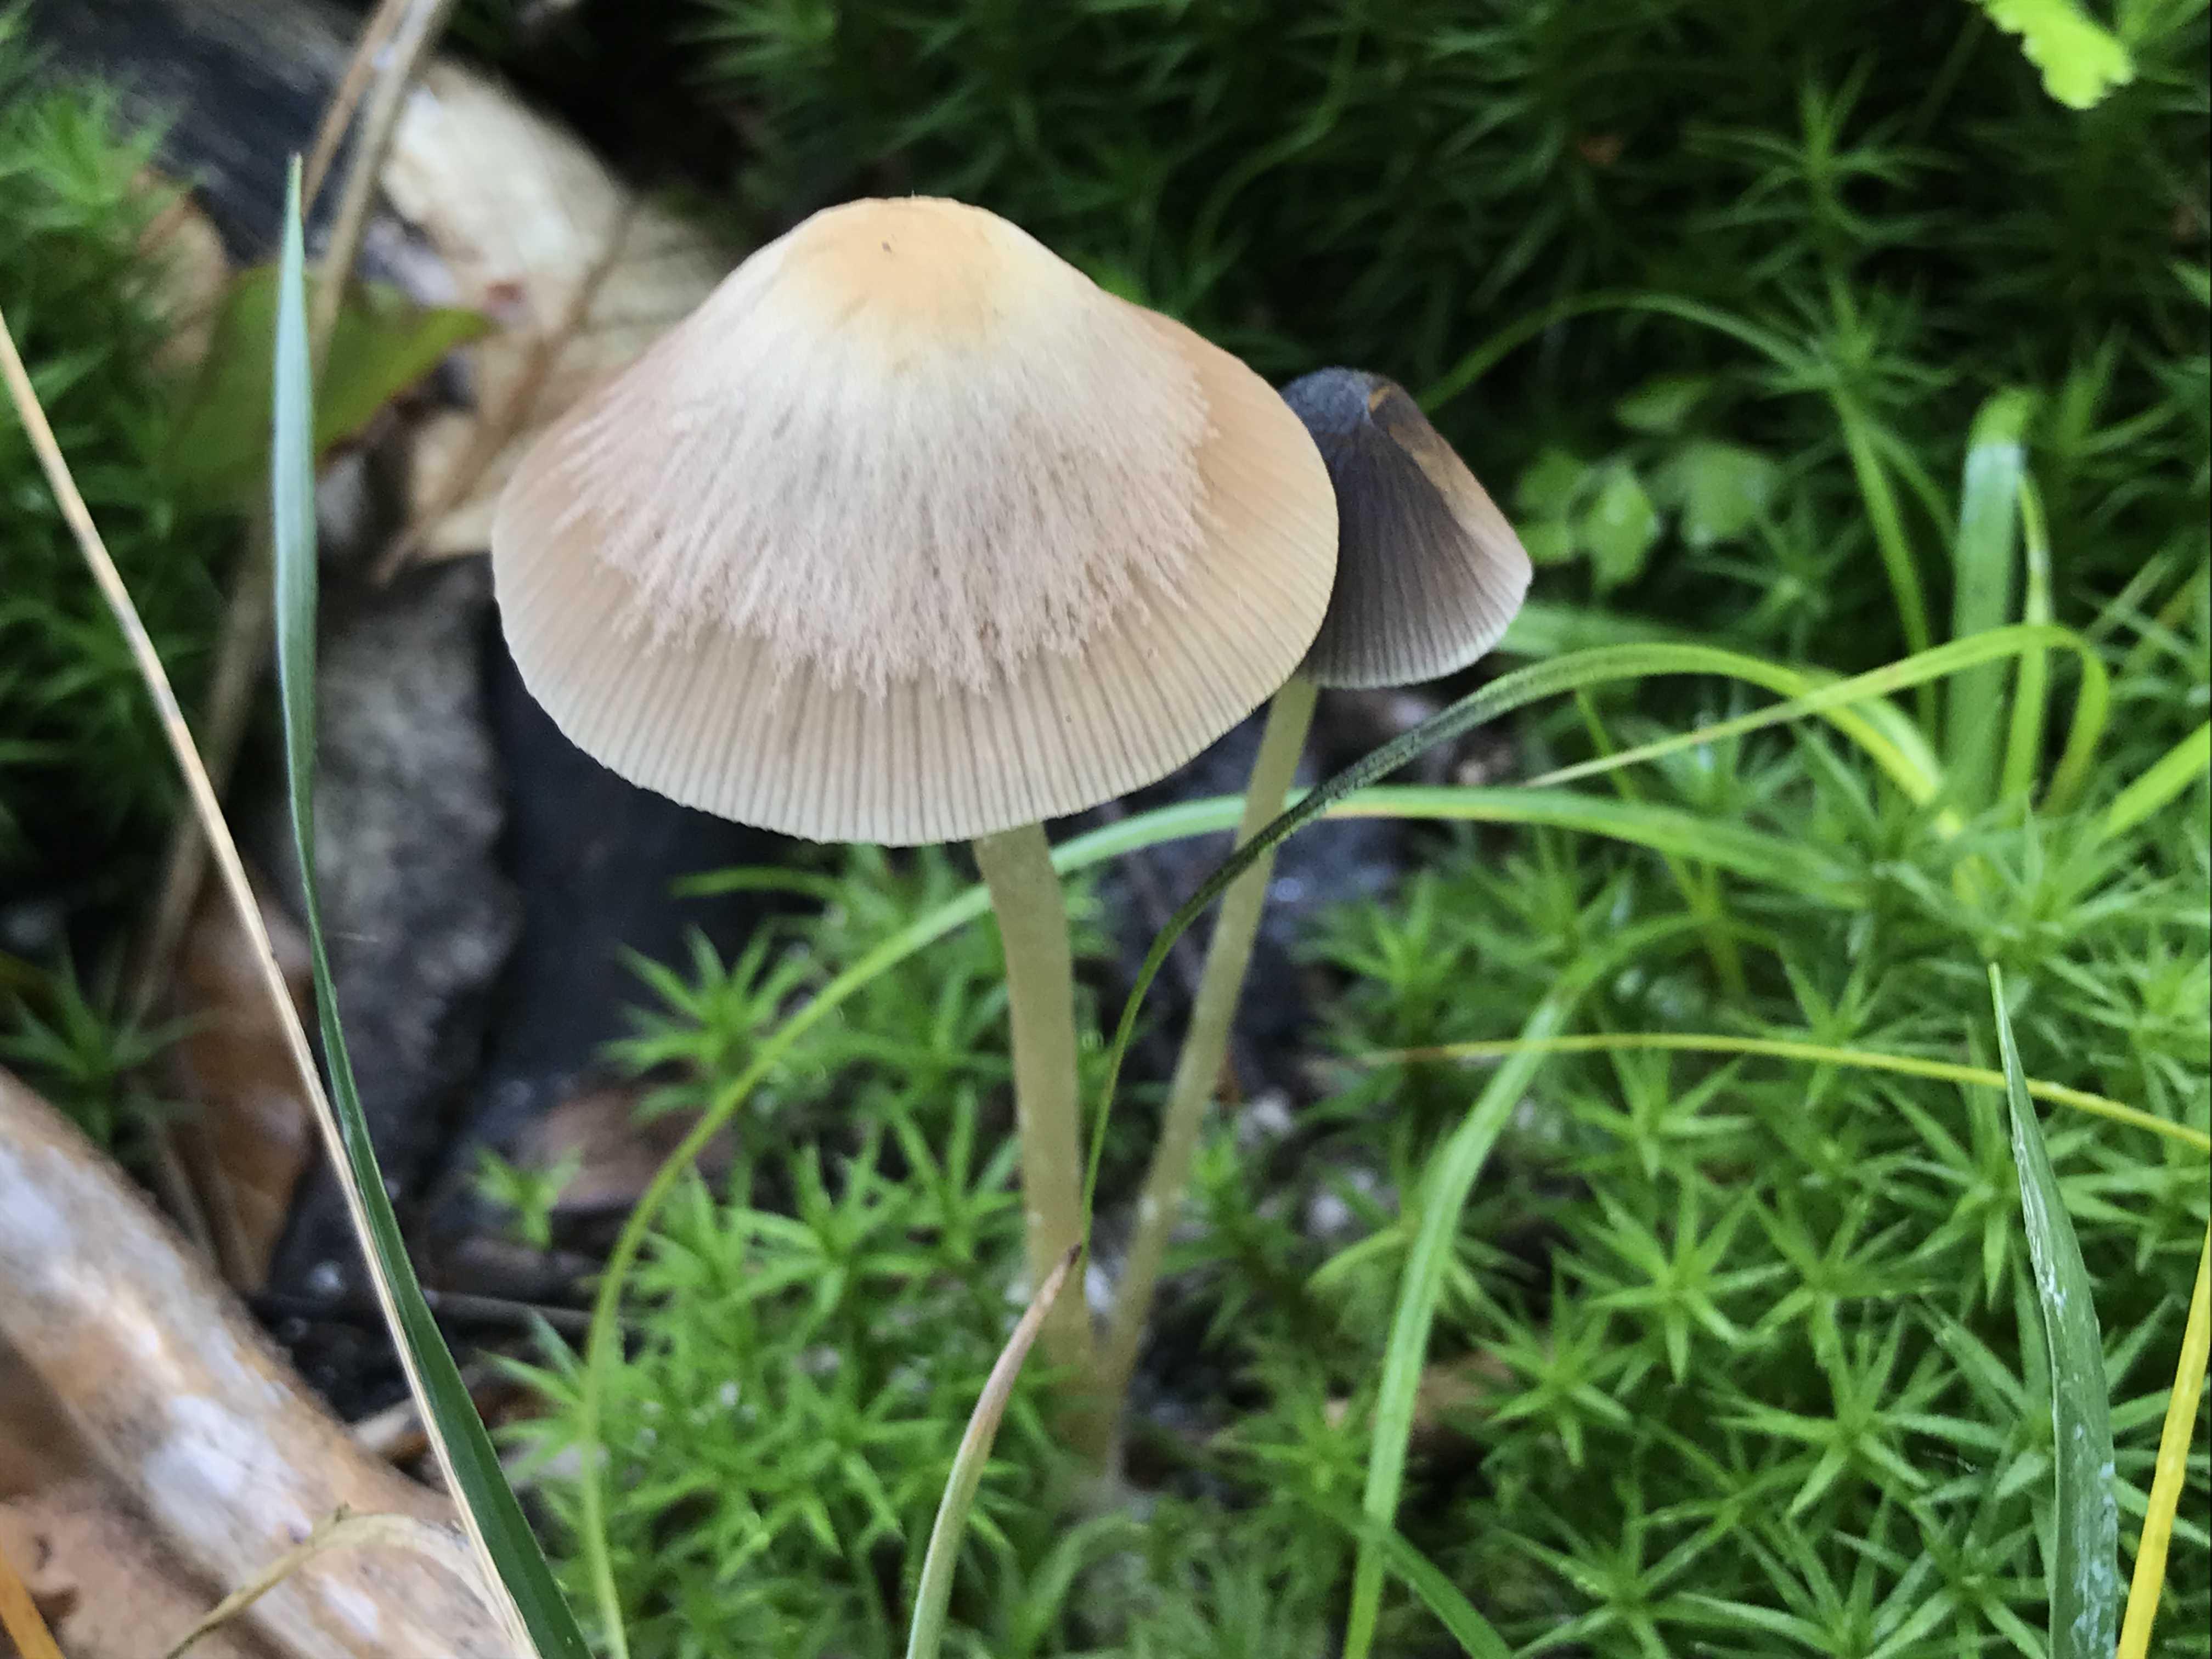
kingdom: Fungi
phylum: Basidiomycota
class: Agaricomycetes
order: Agaricales
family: Psathyrellaceae
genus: Psathyrella
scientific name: Psathyrella
